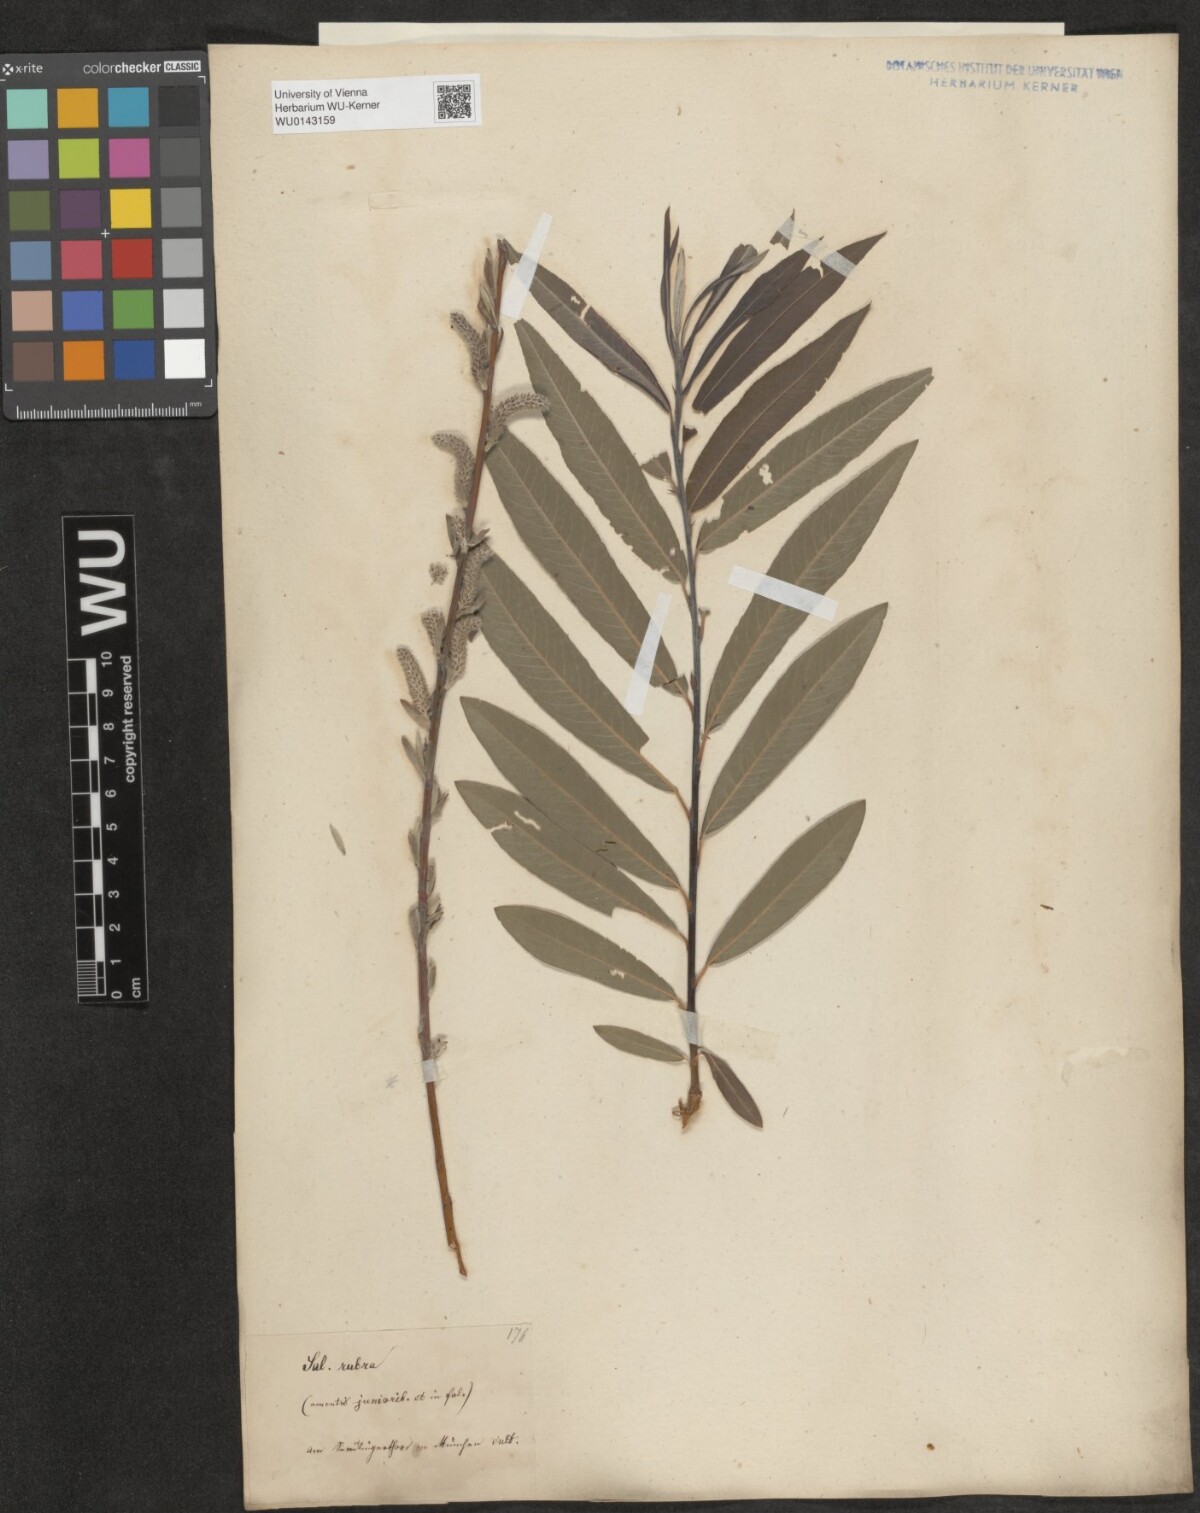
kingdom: Plantae
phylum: Tracheophyta
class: Magnoliopsida
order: Malpighiales
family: Salicaceae
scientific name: Salicaceae
